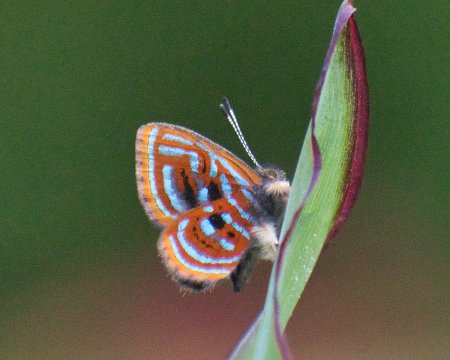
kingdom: Animalia
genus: Charis
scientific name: Charis Sarota acantus
